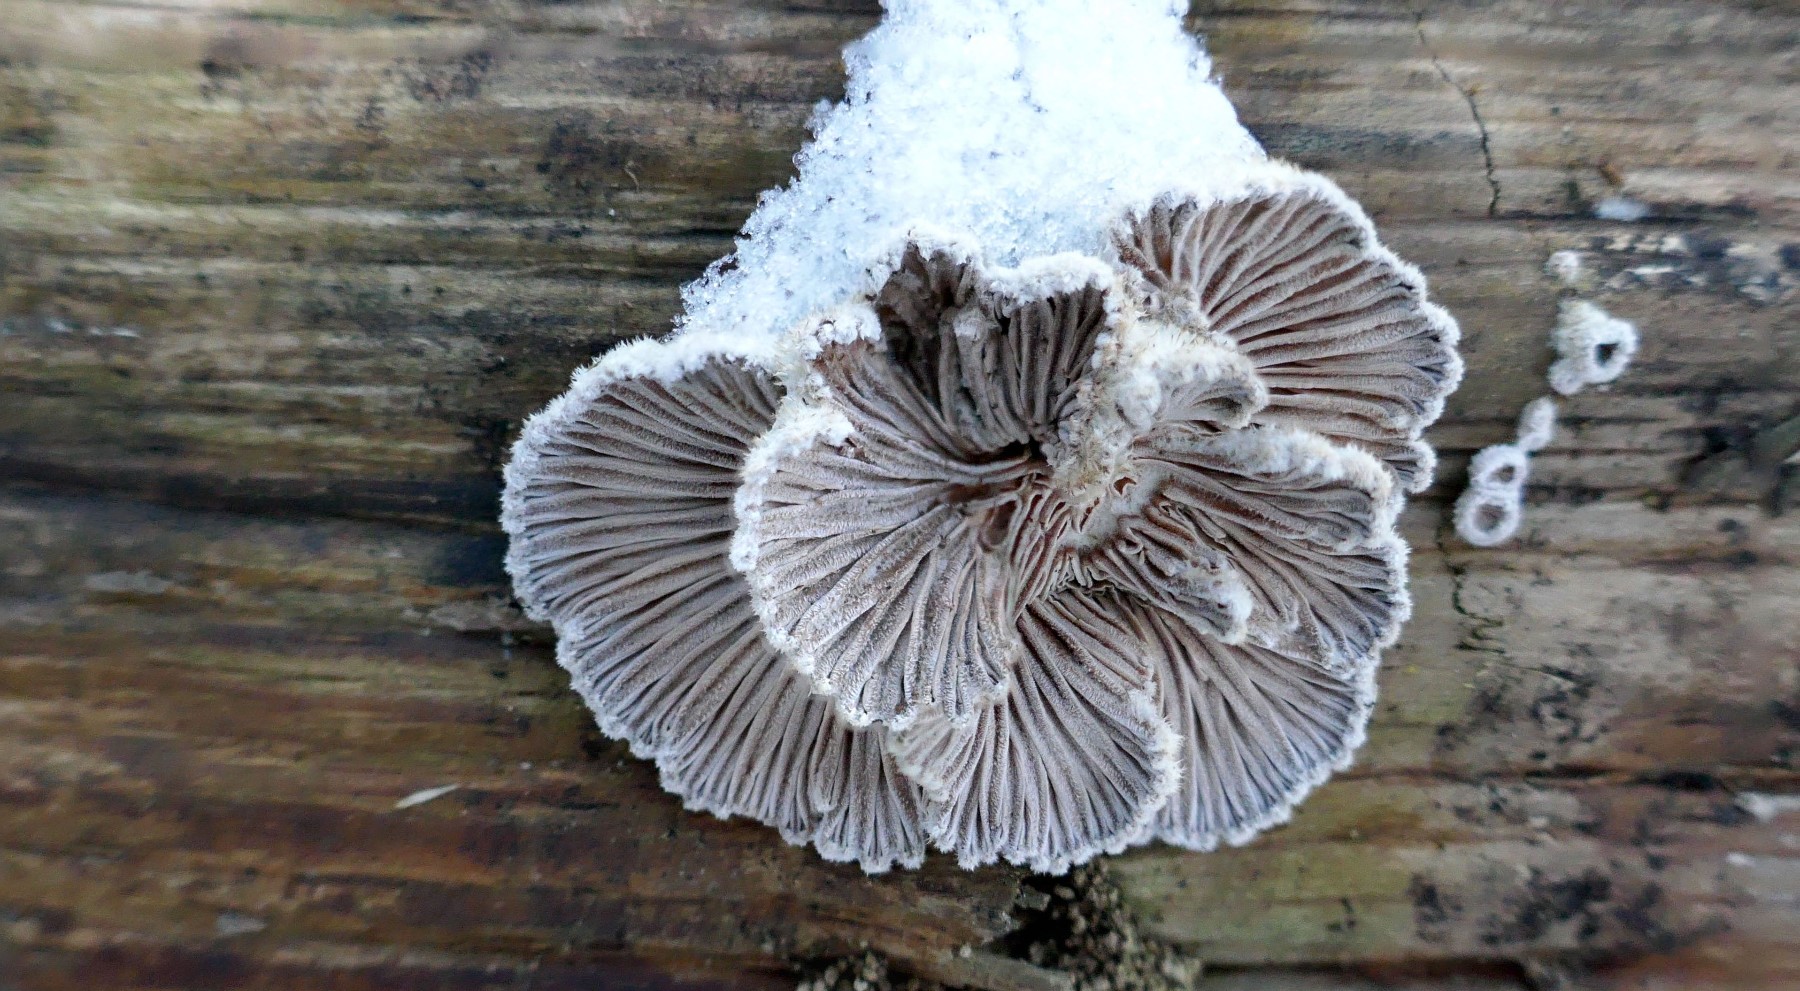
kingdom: Fungi
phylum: Basidiomycota
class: Agaricomycetes
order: Agaricales
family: Schizophyllaceae
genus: Schizophyllum
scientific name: Schizophyllum commune
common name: kløvblad
